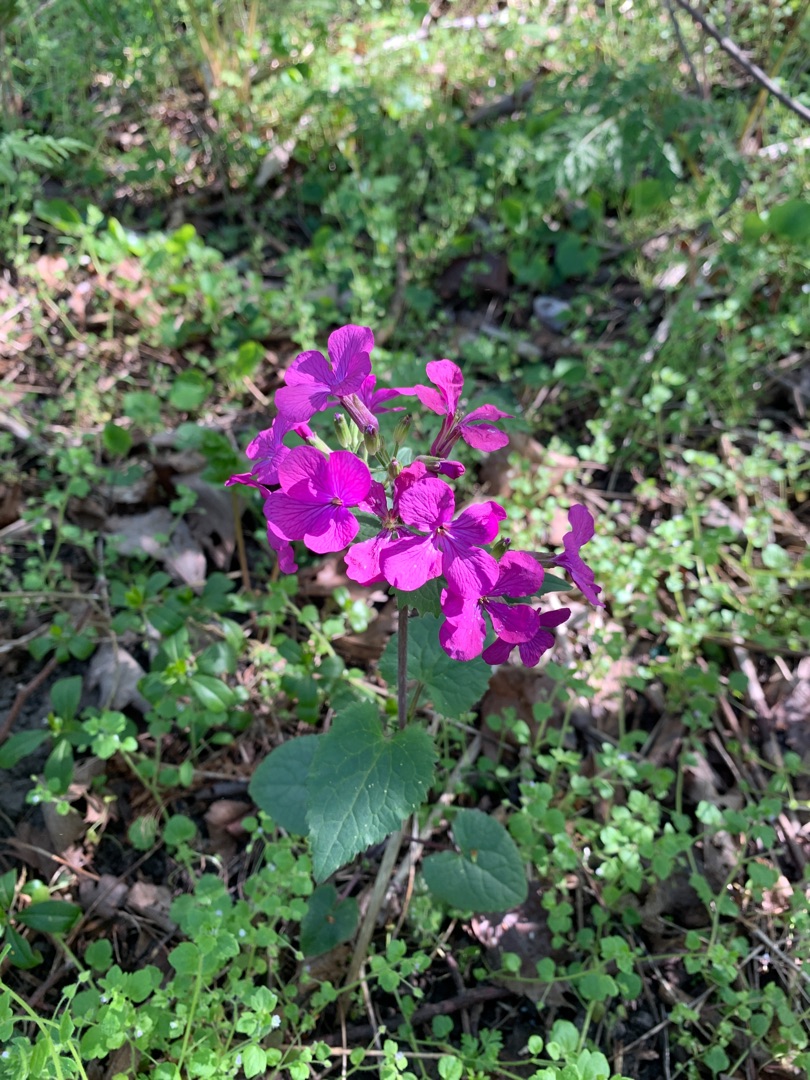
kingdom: Plantae
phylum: Tracheophyta
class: Magnoliopsida
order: Brassicales
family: Brassicaceae
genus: Lunaria
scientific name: Lunaria annua
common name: Judaspenge
